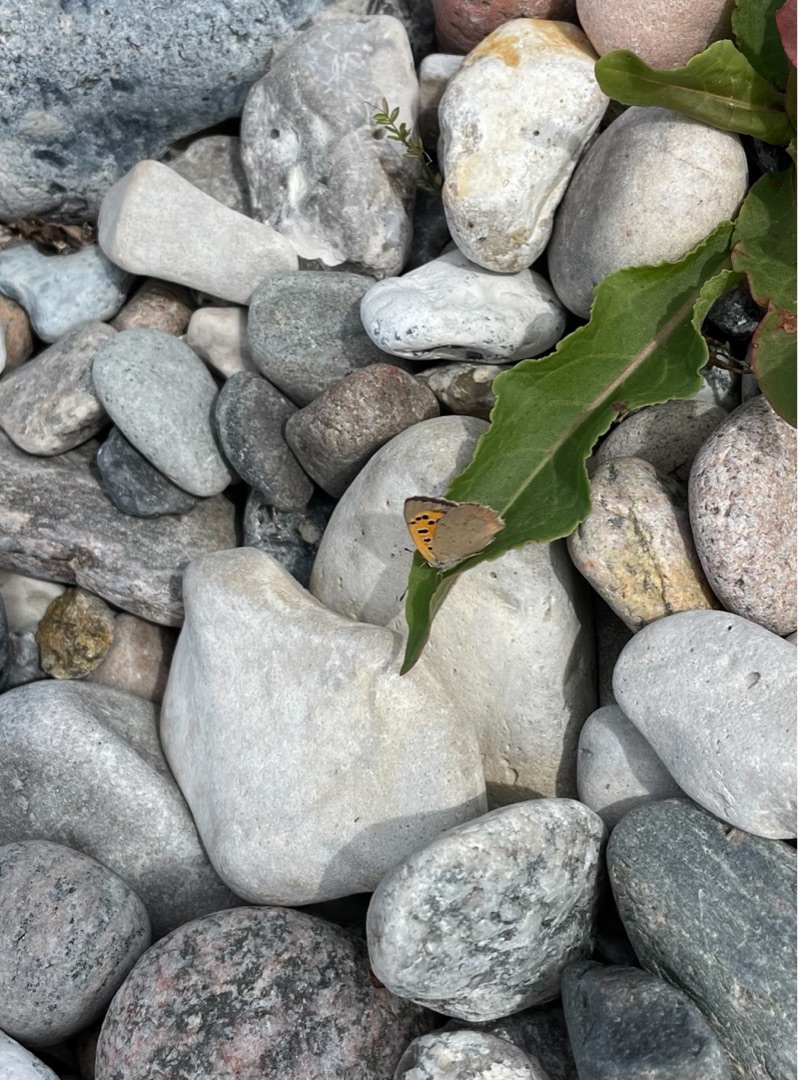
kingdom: Animalia
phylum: Arthropoda
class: Insecta
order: Lepidoptera
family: Lycaenidae
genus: Lycaena
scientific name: Lycaena phlaeas
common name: Lille ildfugl
